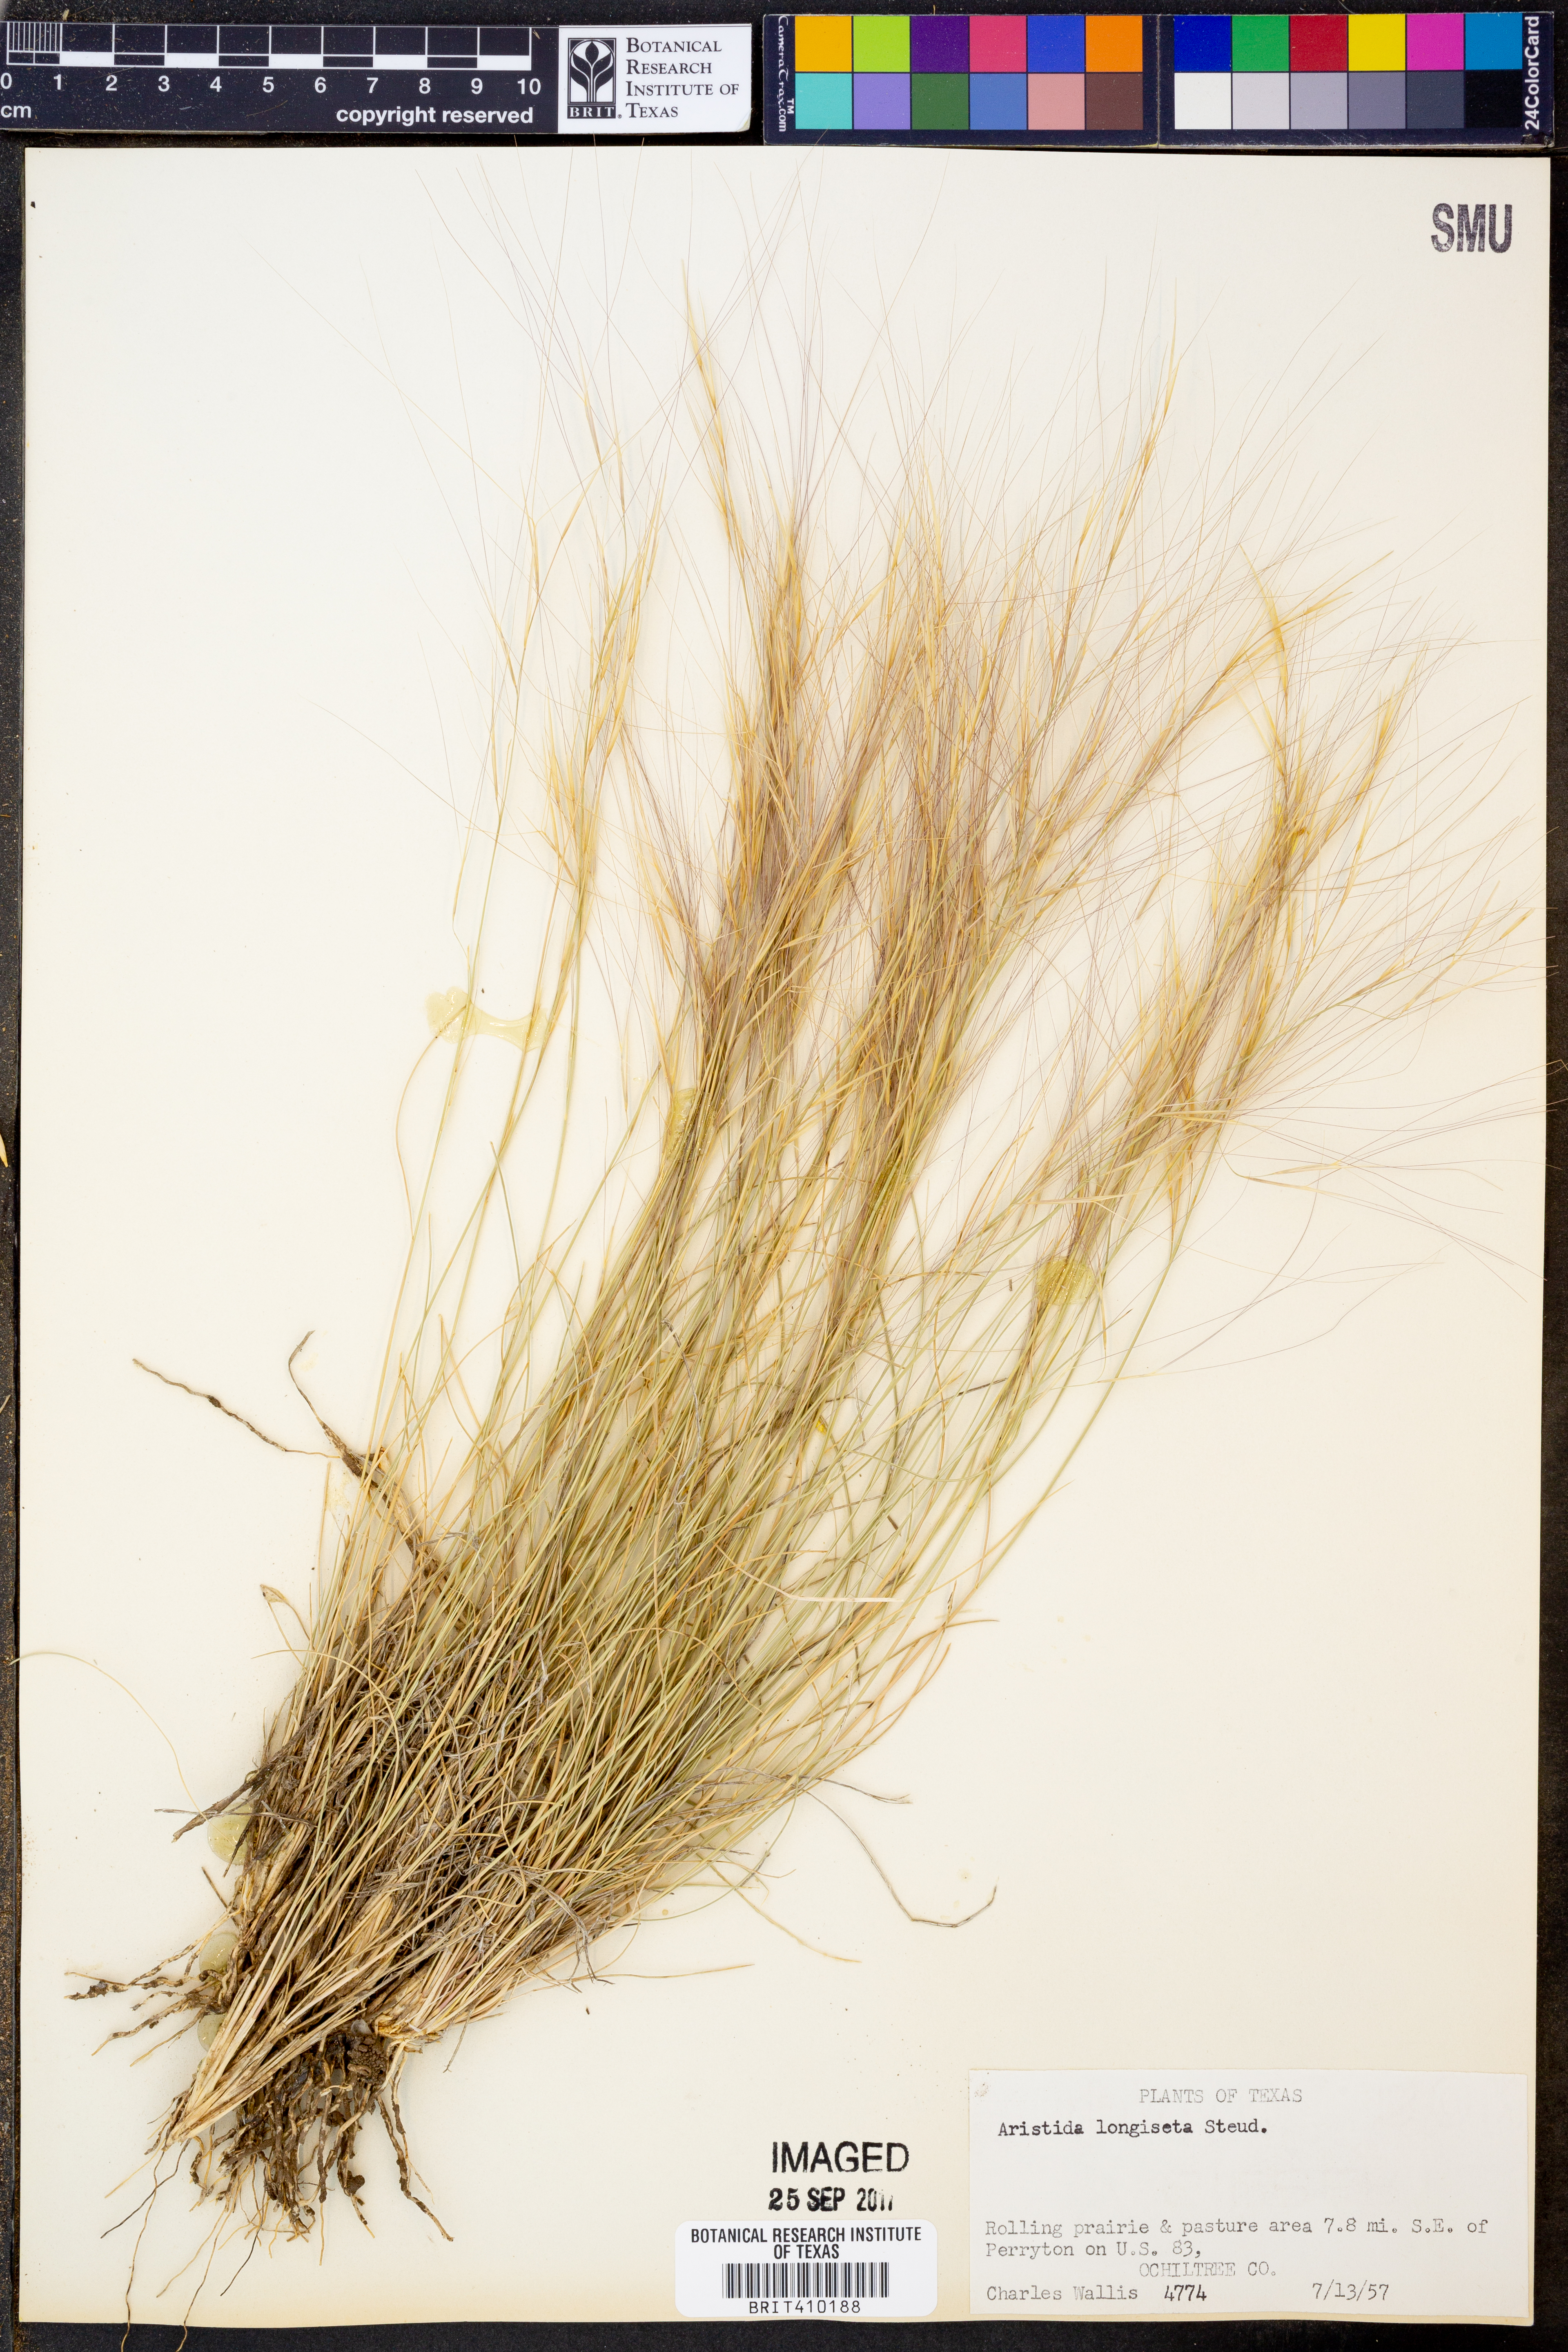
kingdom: Plantae
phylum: Tracheophyta
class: Liliopsida
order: Poales
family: Poaceae
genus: Aristida
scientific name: Aristida longiseta
